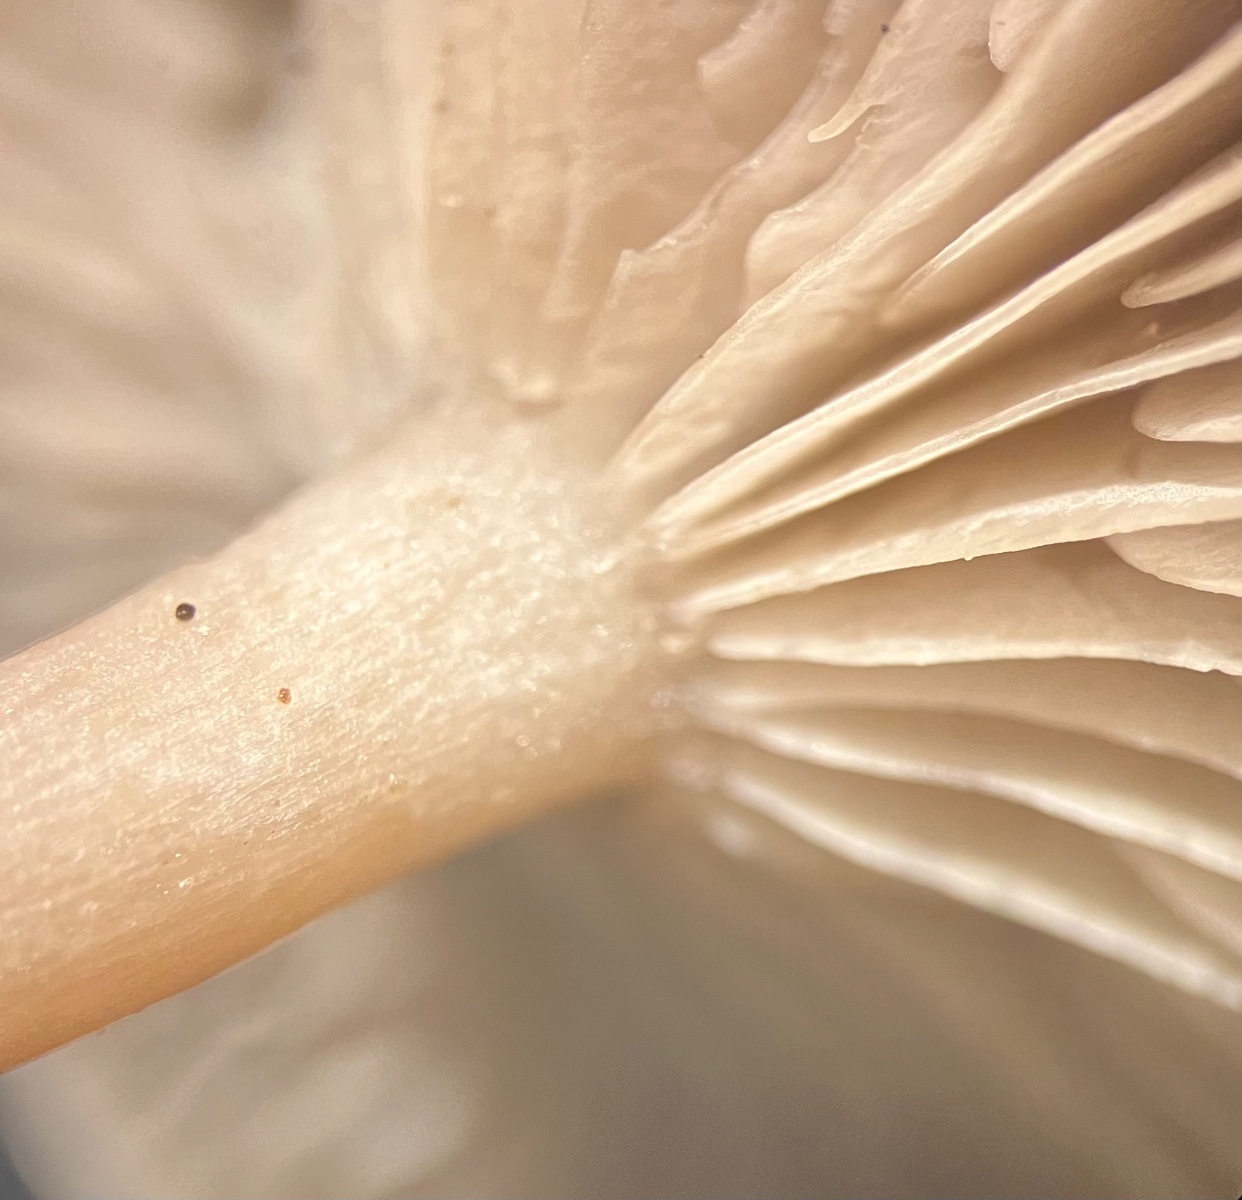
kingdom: Fungi
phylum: Basidiomycota
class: Agaricomycetes
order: Agaricales
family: Tricholomataceae
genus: Clitocybe
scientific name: Clitocybe vibecina
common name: randstribet tragthat
